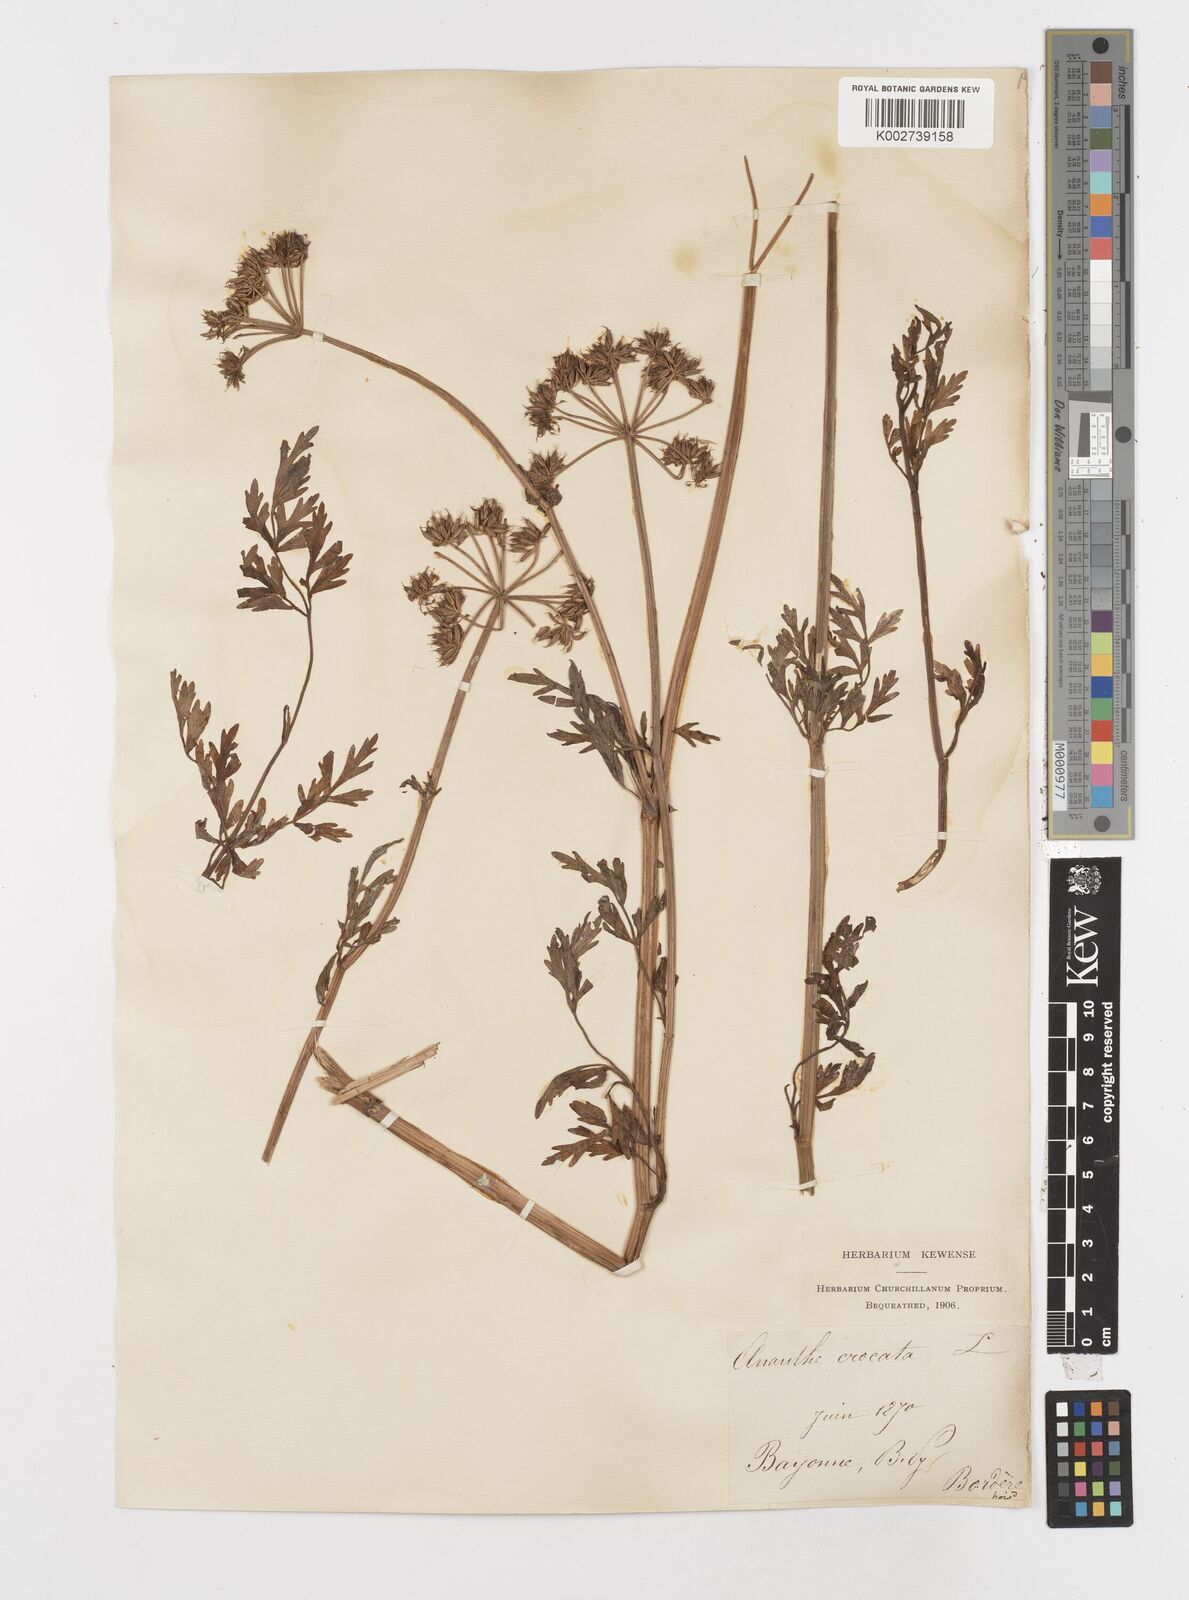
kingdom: Plantae
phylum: Tracheophyta
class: Magnoliopsida
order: Apiales
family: Apiaceae
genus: Oenanthe
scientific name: Oenanthe crocata
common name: Hemlock water-dropwort
